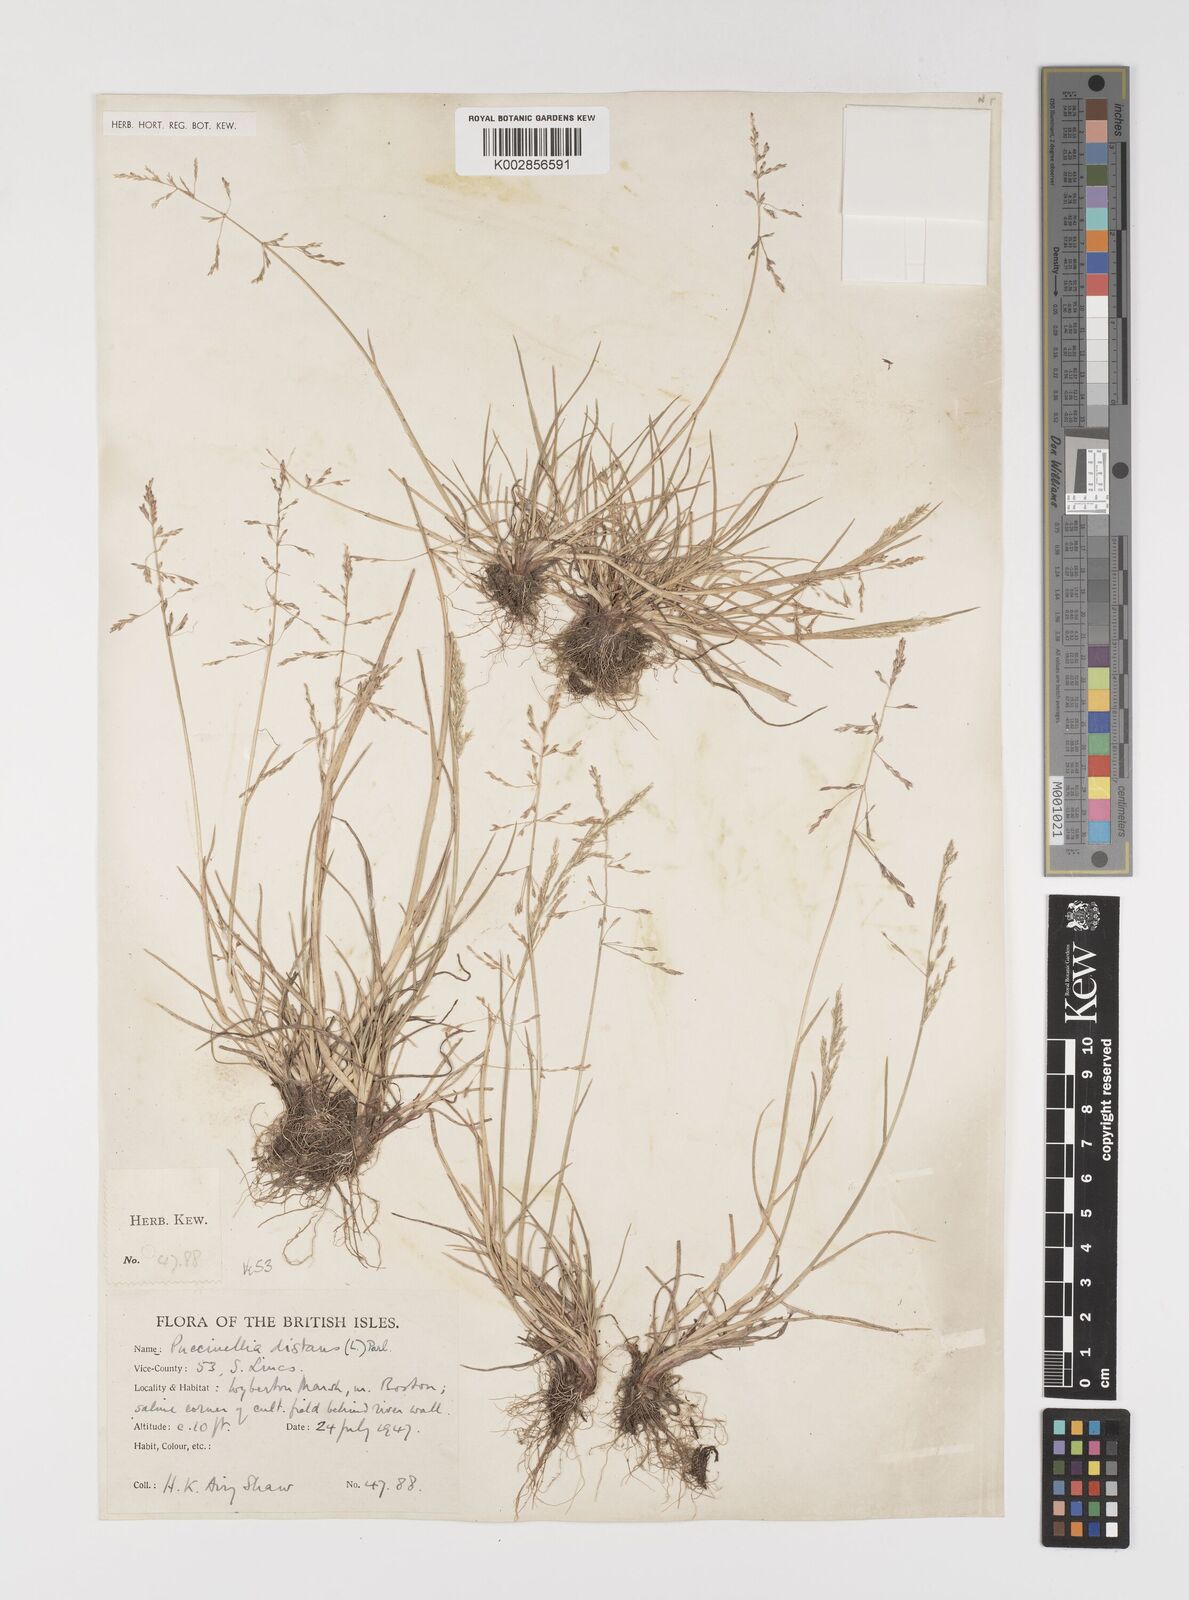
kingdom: Plantae
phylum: Tracheophyta
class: Liliopsida
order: Poales
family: Poaceae
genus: Puccinellia
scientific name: Puccinellia distans
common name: Weeping alkaligrass
